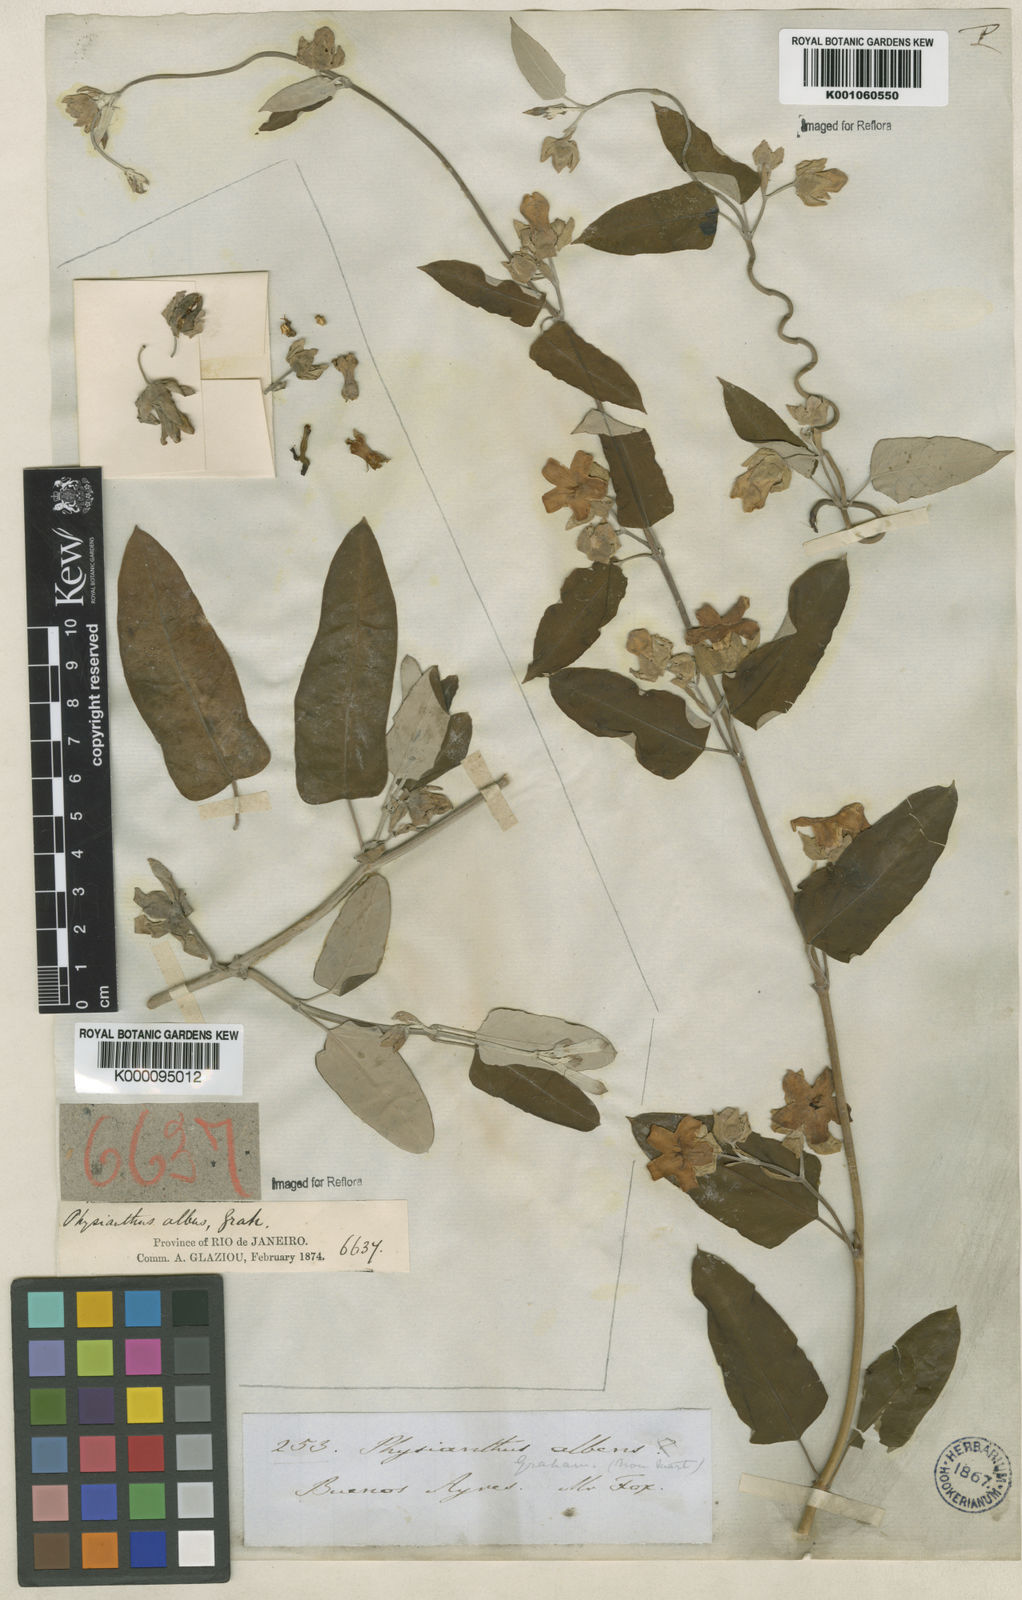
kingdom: Plantae
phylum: Tracheophyta
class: Magnoliopsida
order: Gentianales
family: Apocynaceae
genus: Araujia
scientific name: Araujia sericifera
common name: White bladderflower
